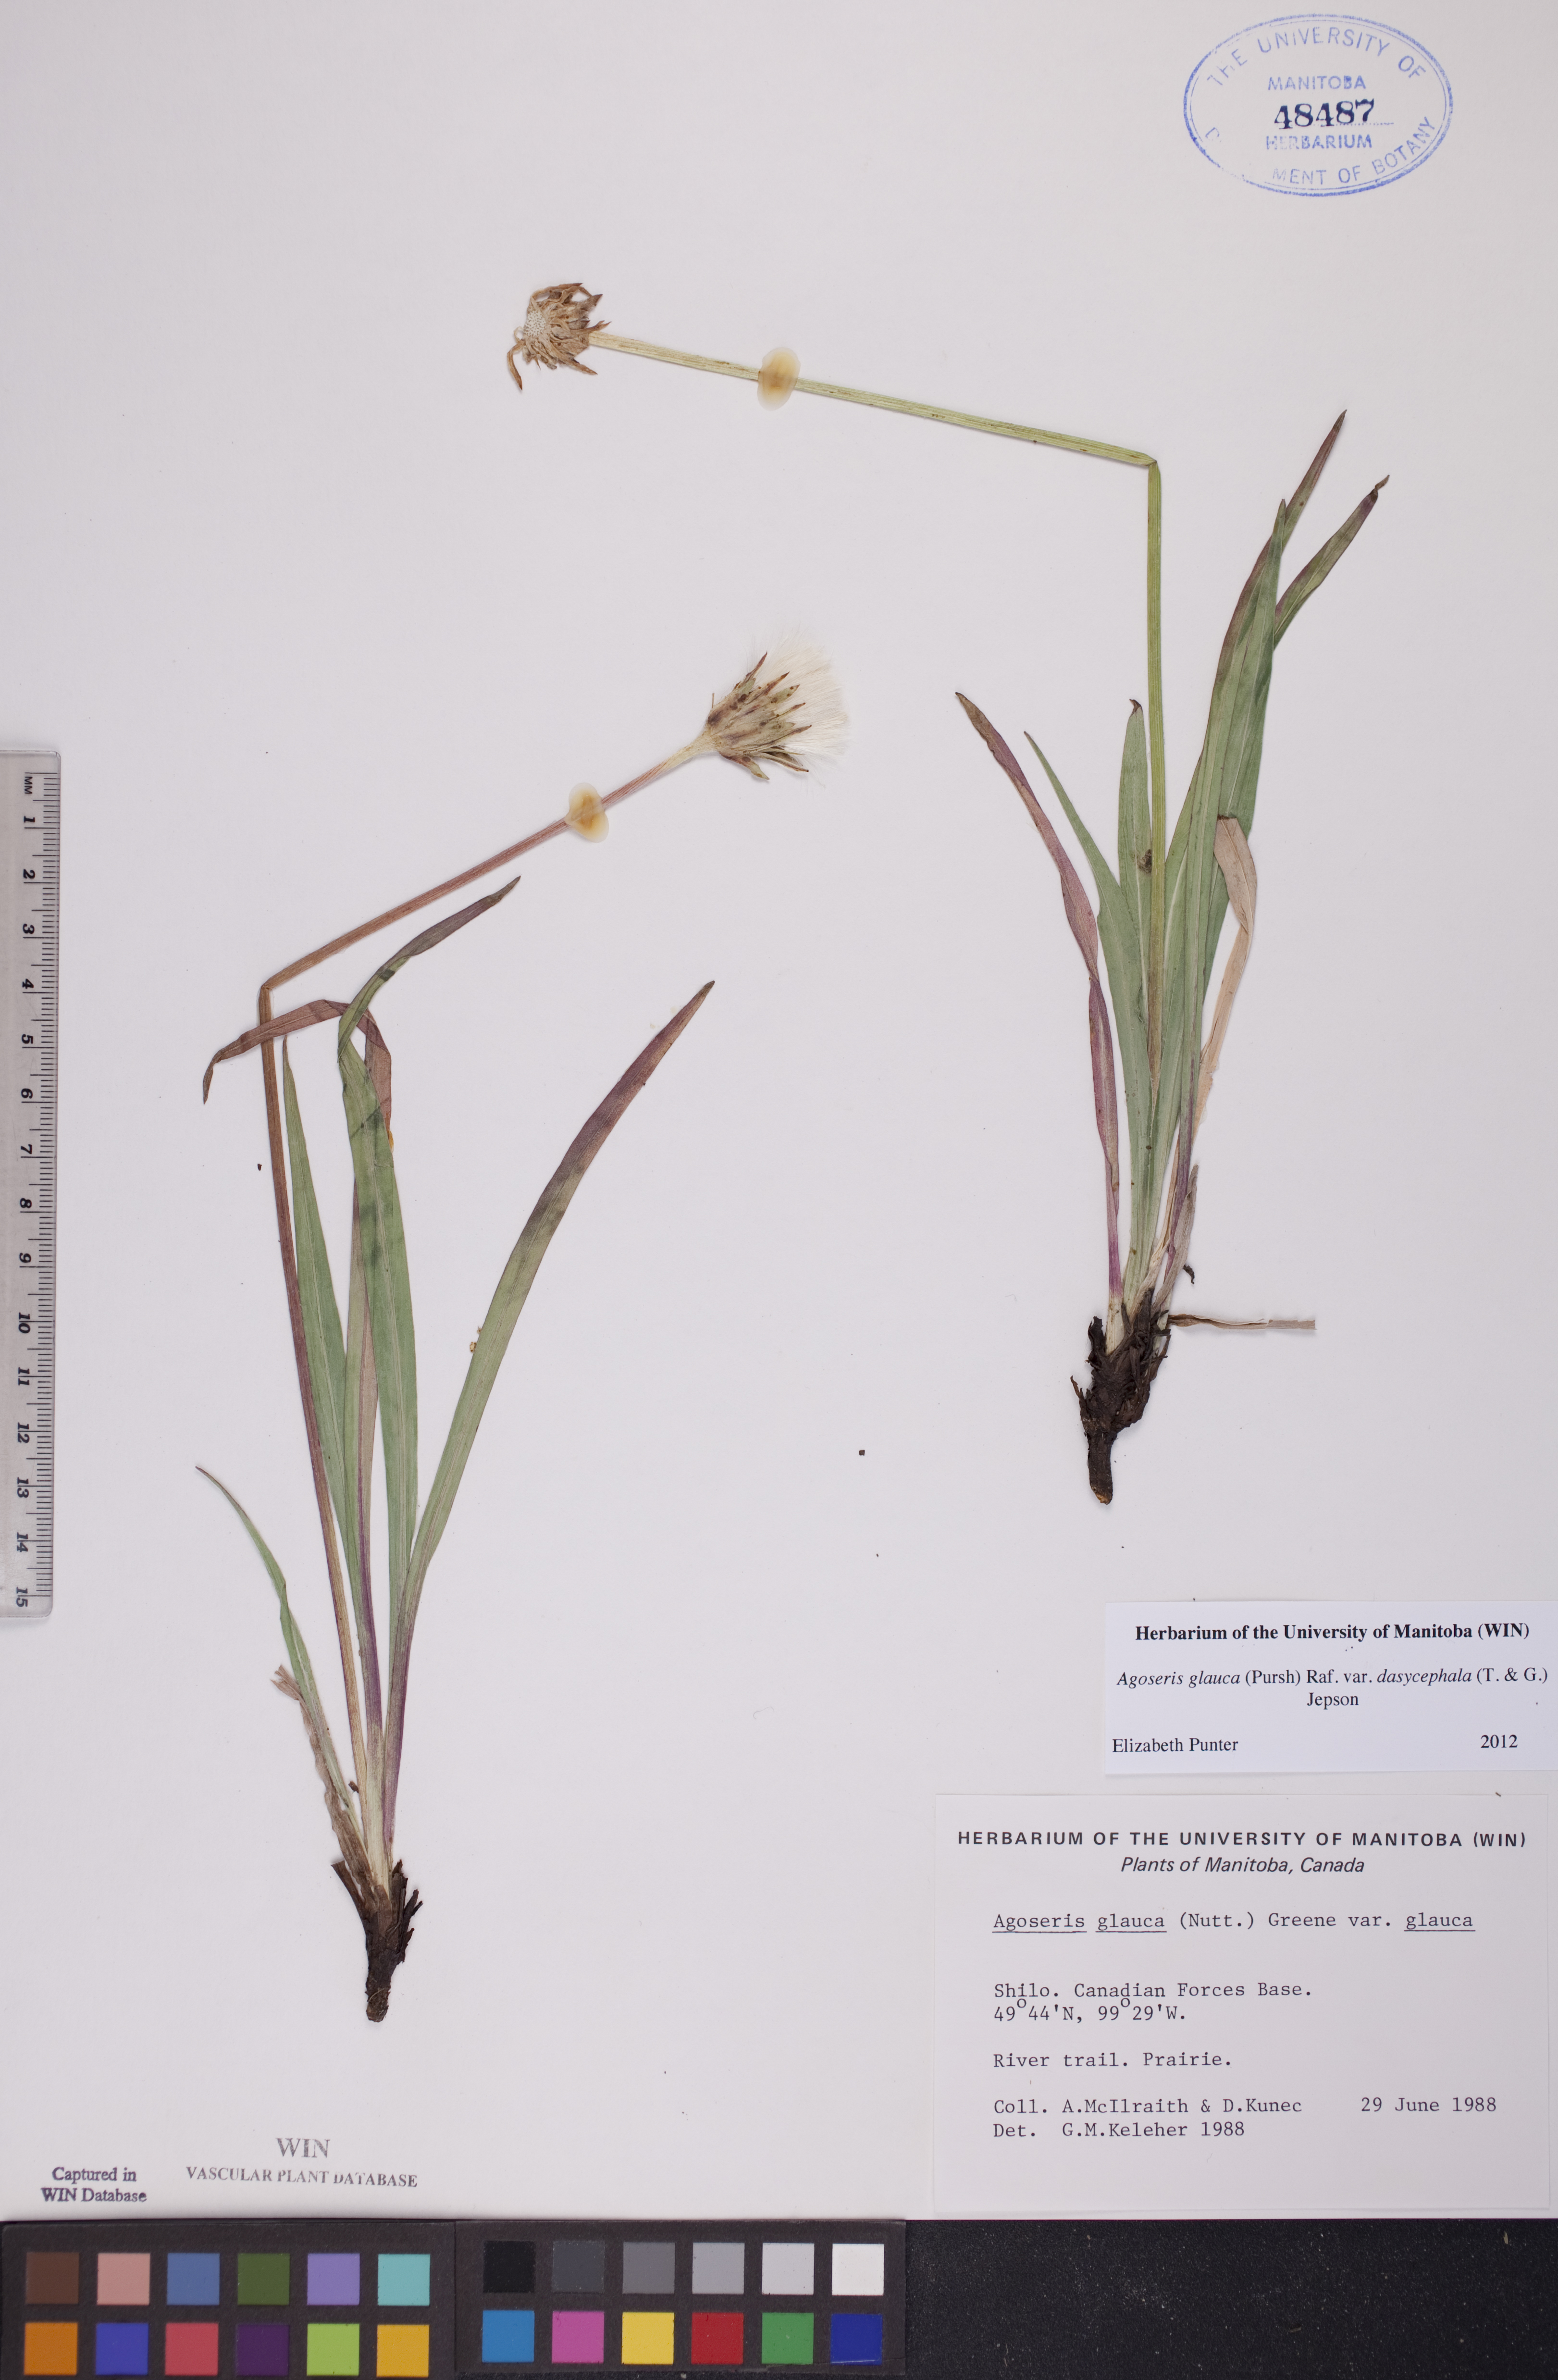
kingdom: Plantae
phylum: Tracheophyta
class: Magnoliopsida
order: Asterales
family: Asteraceae
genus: Agoseris
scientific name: Agoseris glauca
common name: Prairie agoseris
